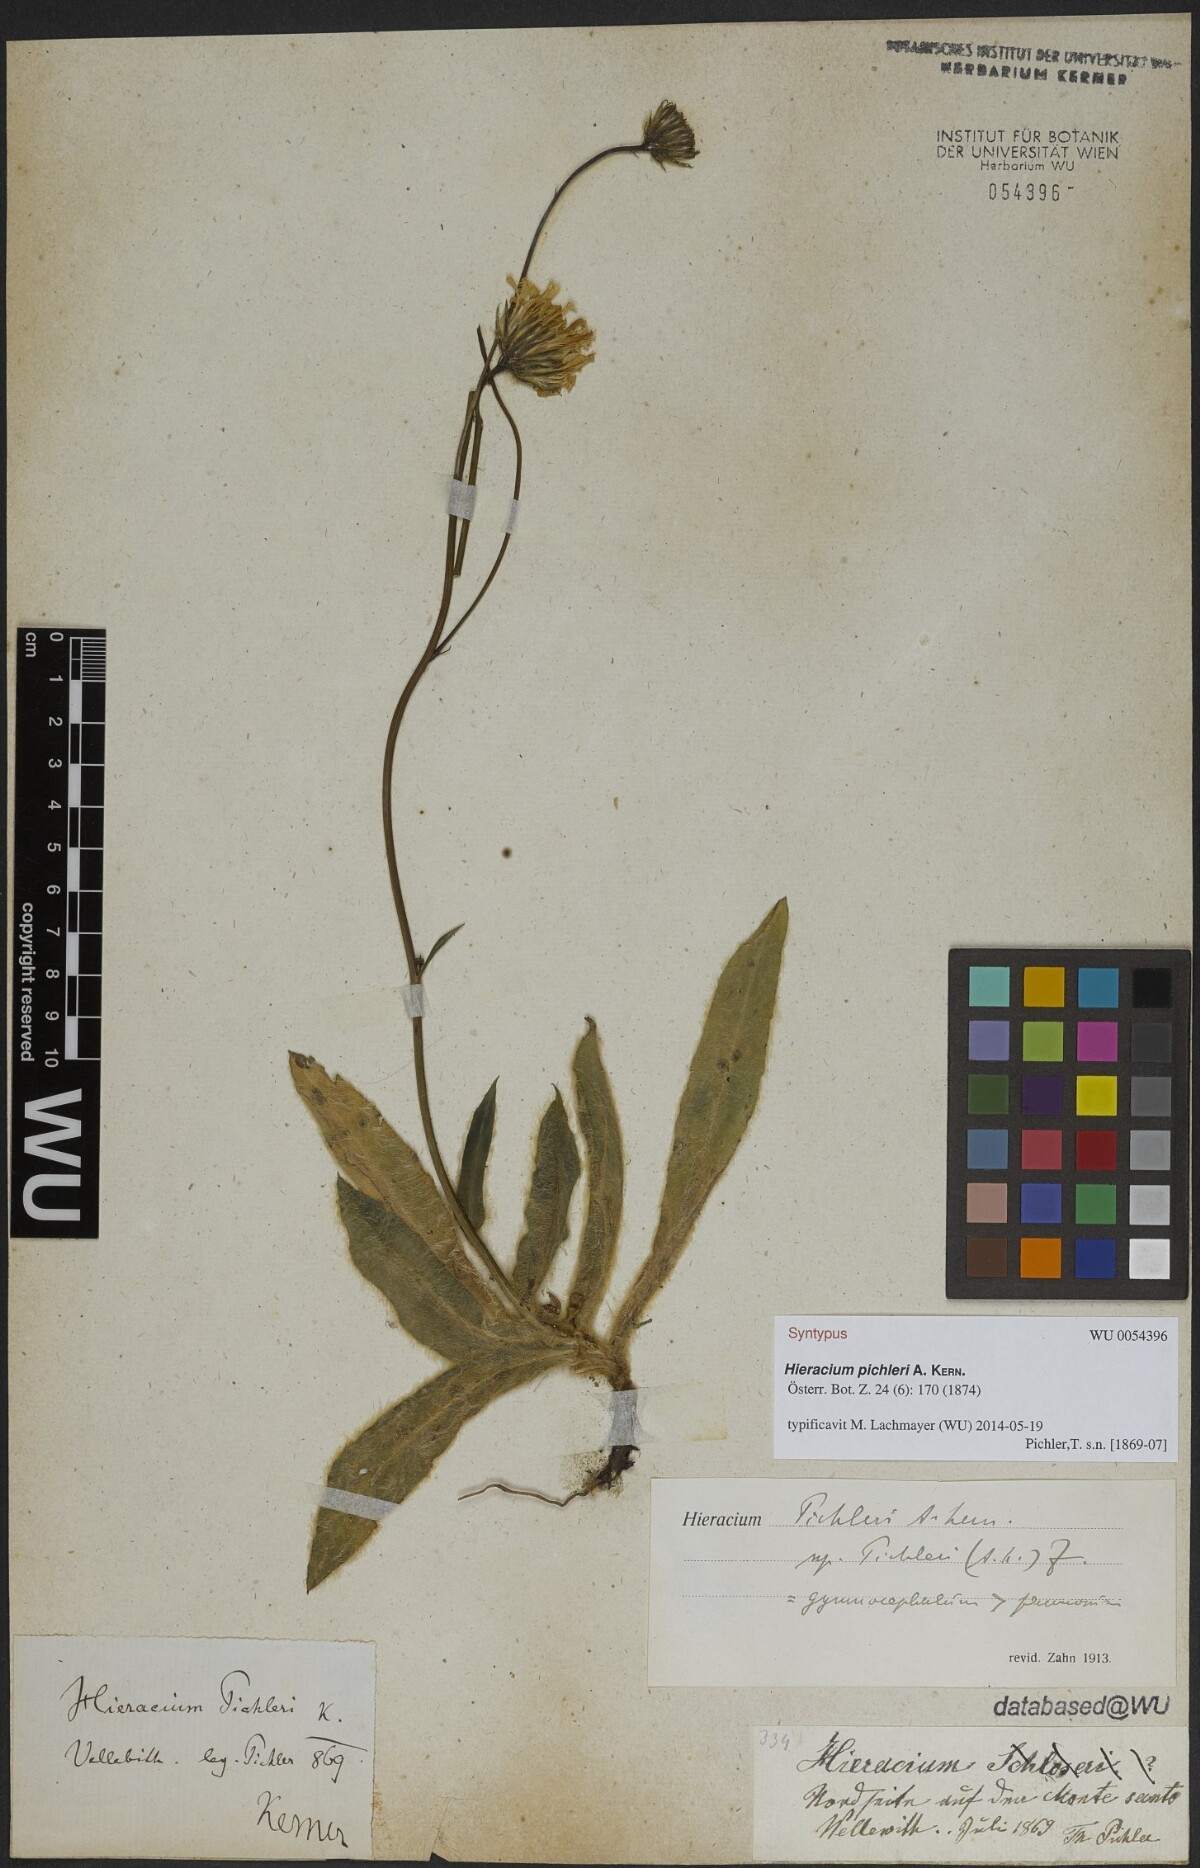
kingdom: Plantae
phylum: Tracheophyta
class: Magnoliopsida
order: Asterales
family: Asteraceae
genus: Hieracium
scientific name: Hieracium pichleri
